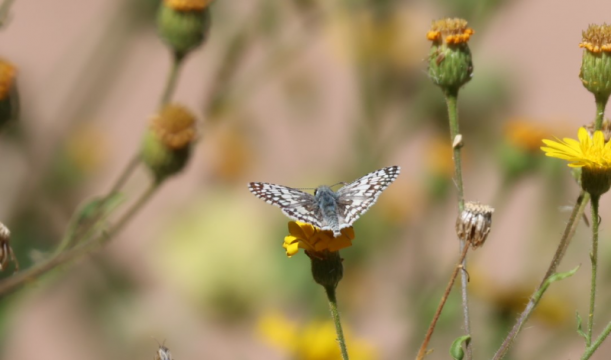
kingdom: Animalia
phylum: Arthropoda
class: Insecta
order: Lepidoptera
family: Hesperiidae
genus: Pyrgus
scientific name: Pyrgus communis
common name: White Checkered-Skipper
